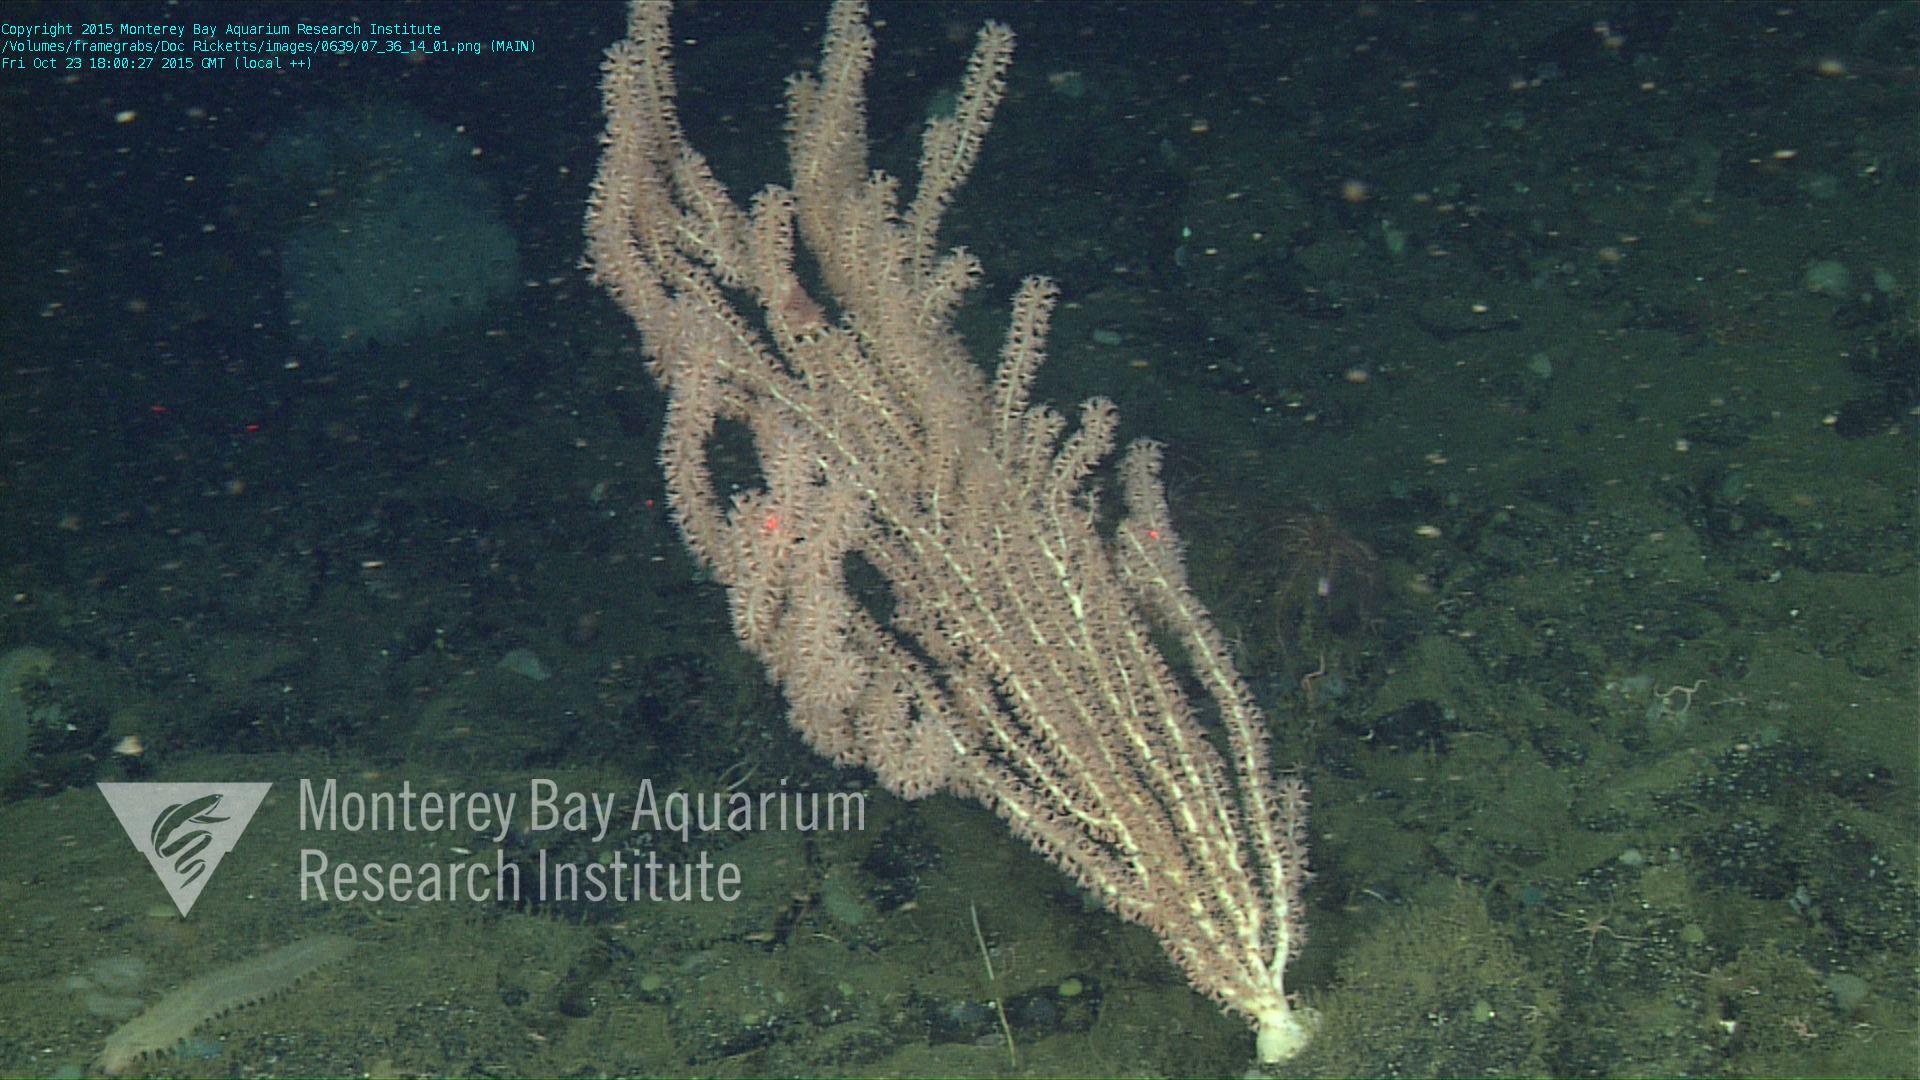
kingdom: Animalia
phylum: Cnidaria
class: Anthozoa
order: Scleralcyonacea
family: Keratoisididae
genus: Keratoisis
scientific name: Keratoisis
